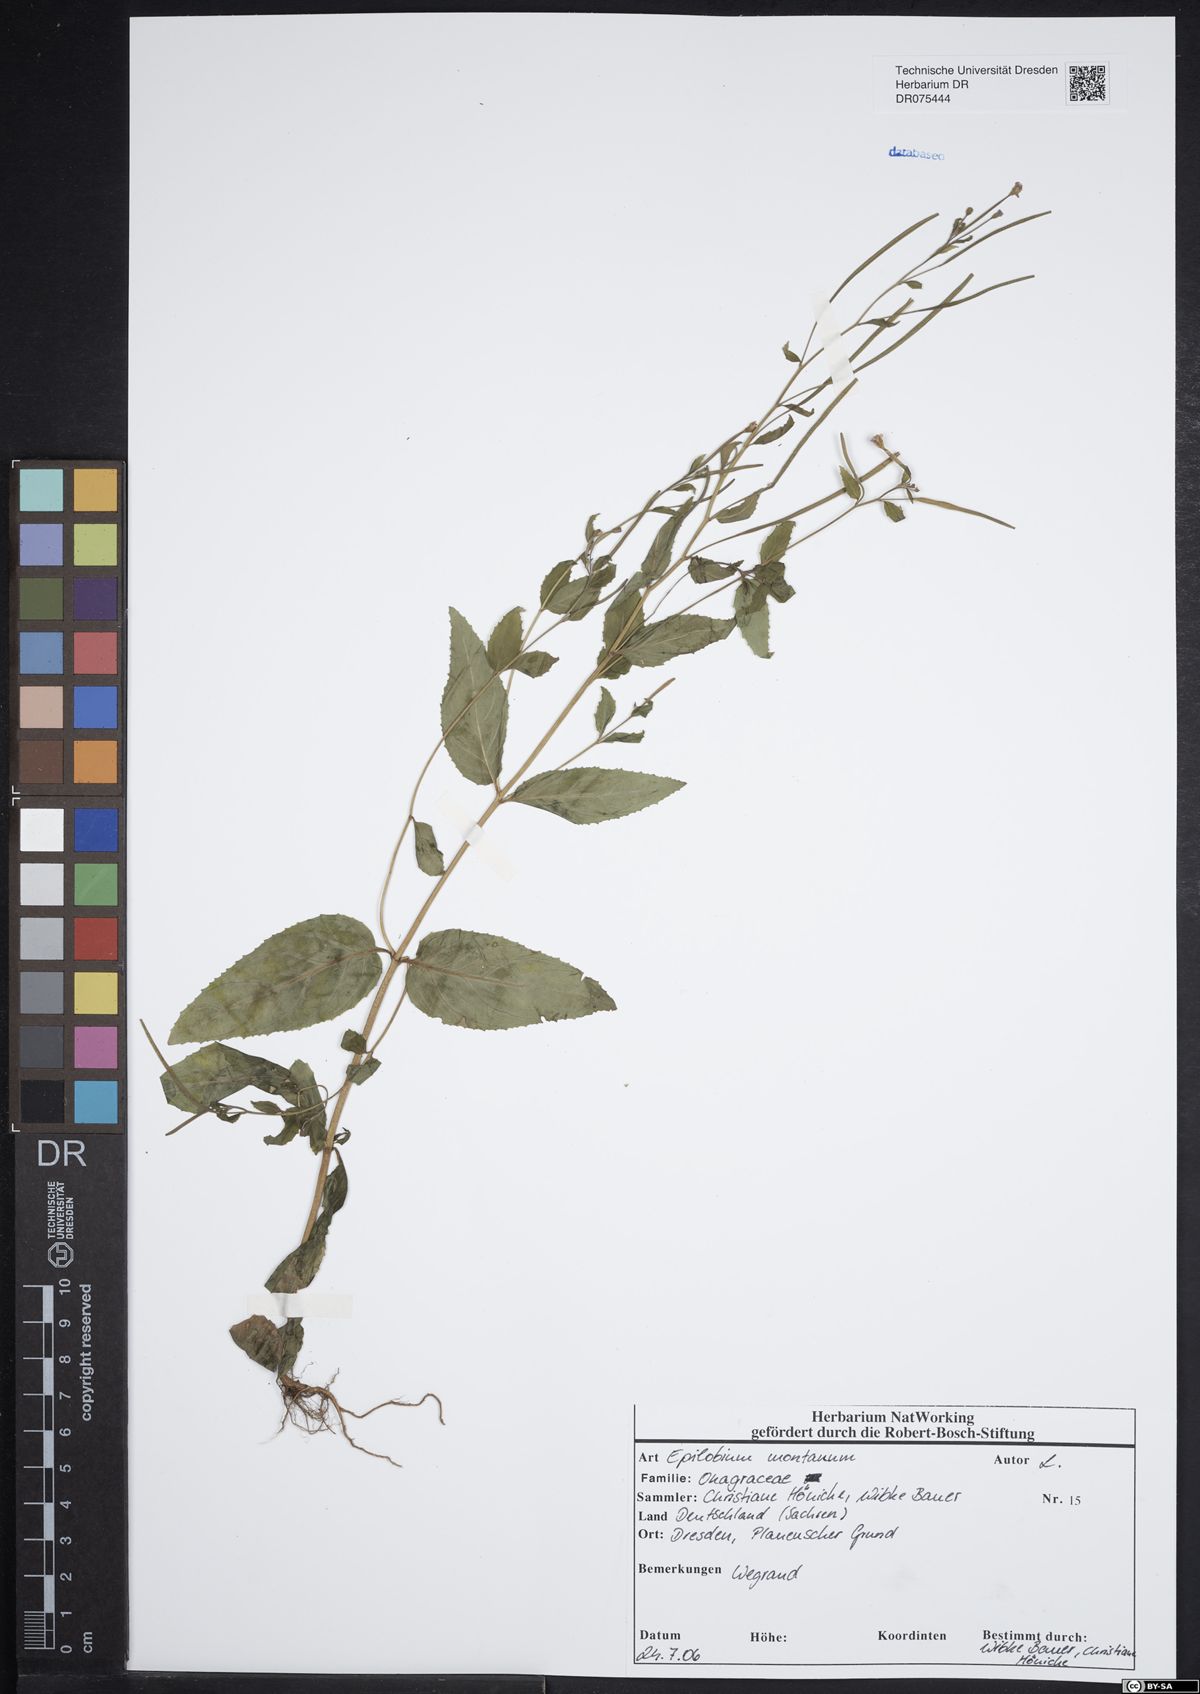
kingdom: Plantae
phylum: Tracheophyta
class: Magnoliopsida
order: Myrtales
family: Onagraceae
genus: Epilobium
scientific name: Epilobium montanum
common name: Broad-leaved willowherb
